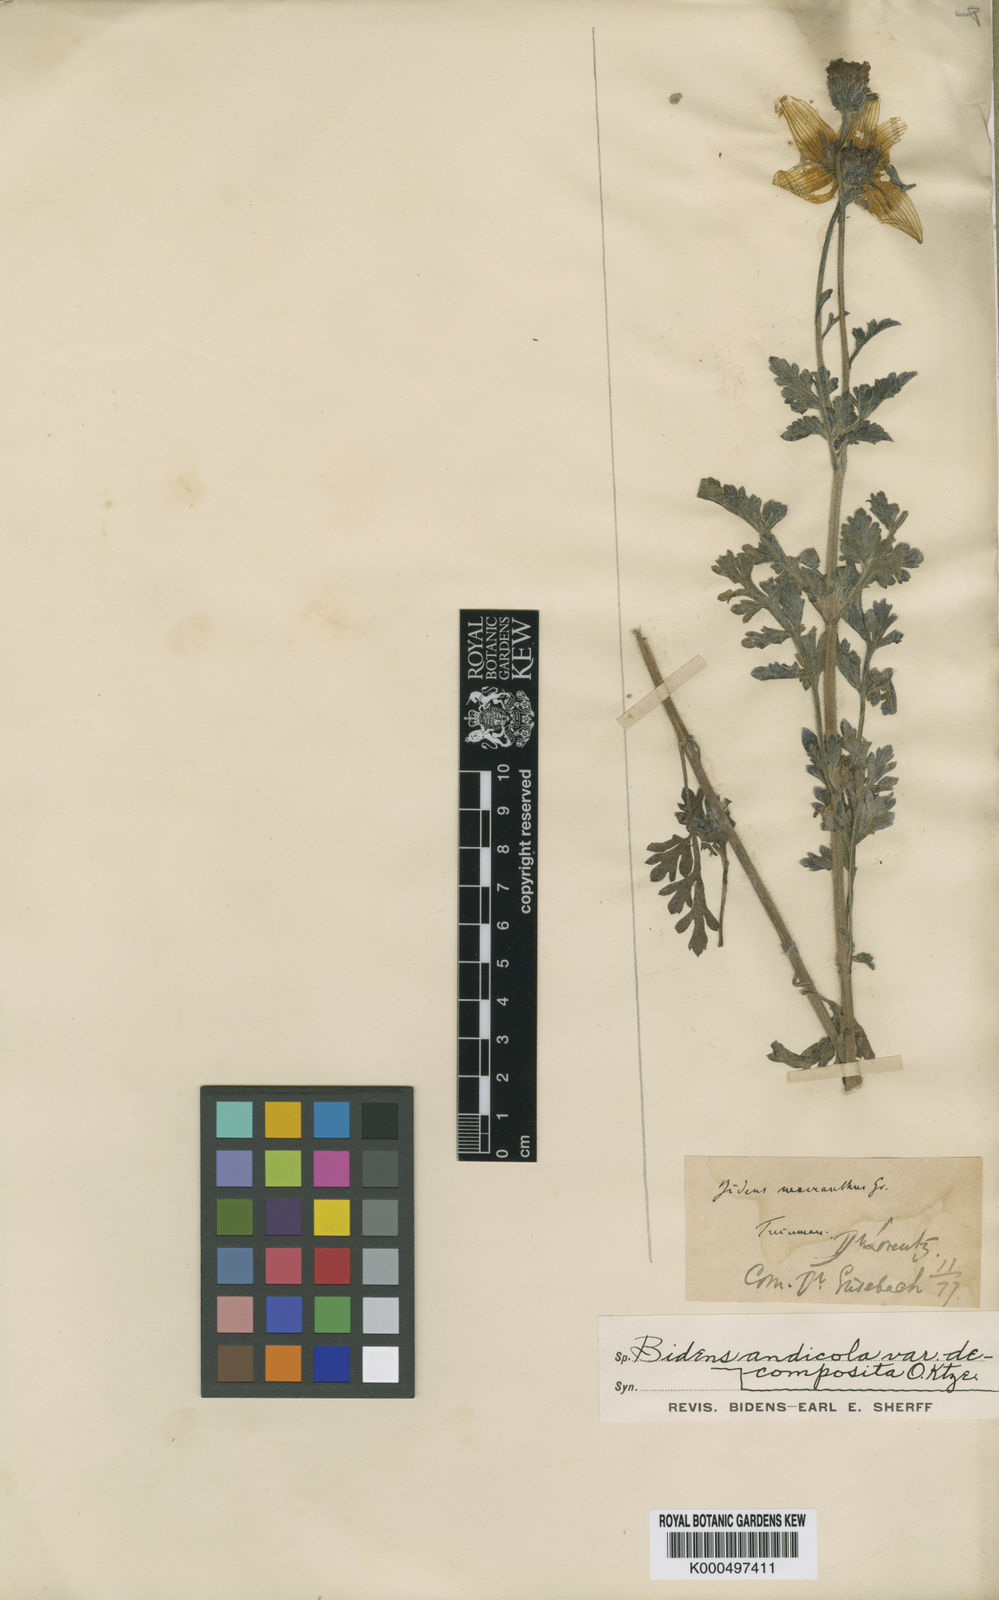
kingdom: Plantae
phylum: Tracheophyta
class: Magnoliopsida
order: Asterales
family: Asteraceae
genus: Bidens
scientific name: Bidens andicola
